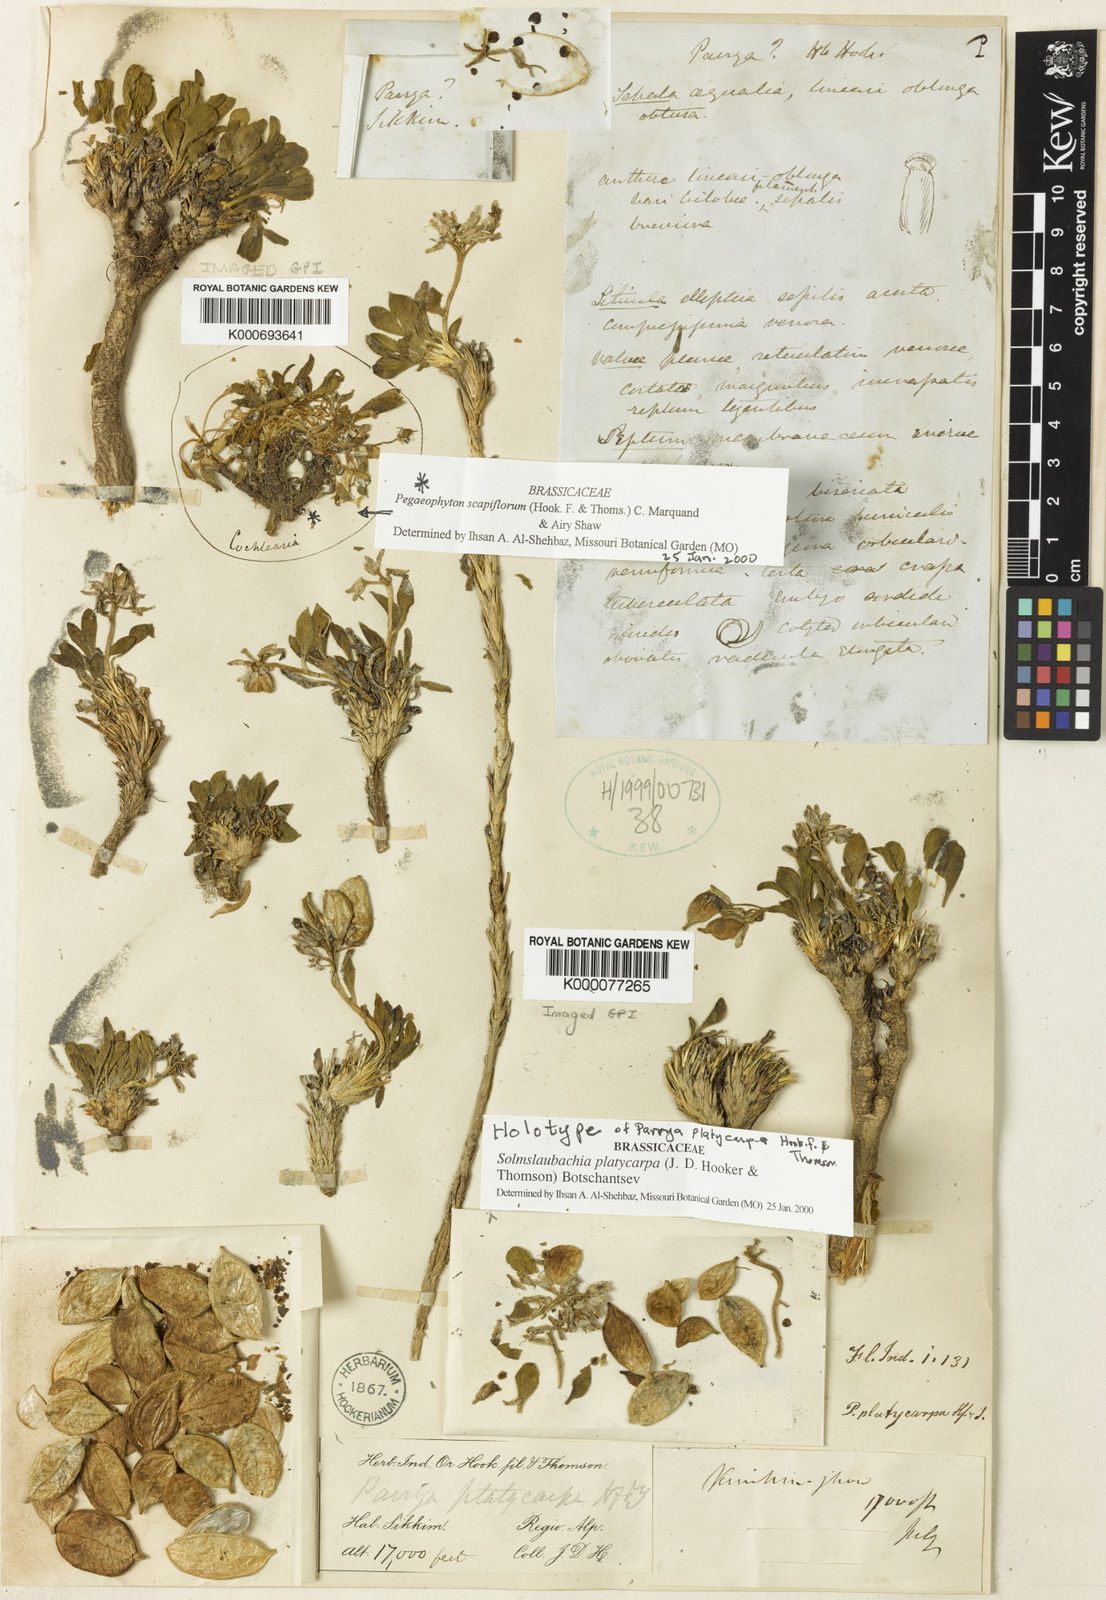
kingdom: Plantae
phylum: Tracheophyta
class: Magnoliopsida
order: Brassicales
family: Brassicaceae
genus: Solms-laubachia
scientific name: Solms-laubachia platycarpa
